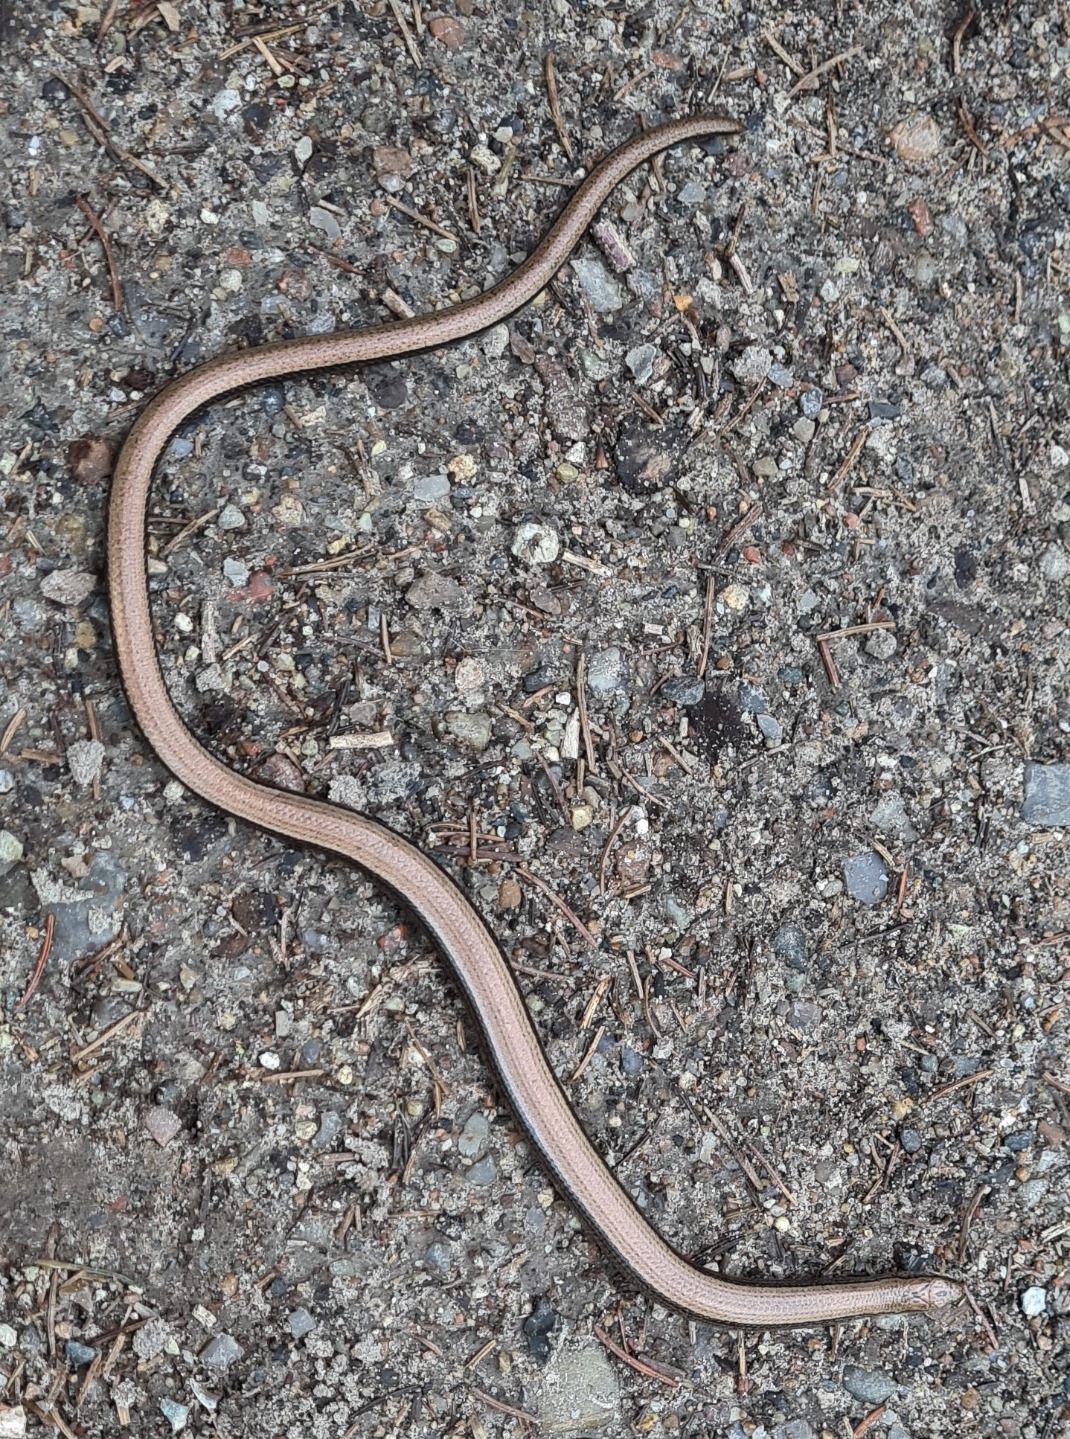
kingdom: Animalia
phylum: Chordata
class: Squamata
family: Anguidae
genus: Anguis
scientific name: Anguis fragilis
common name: Stålorm
